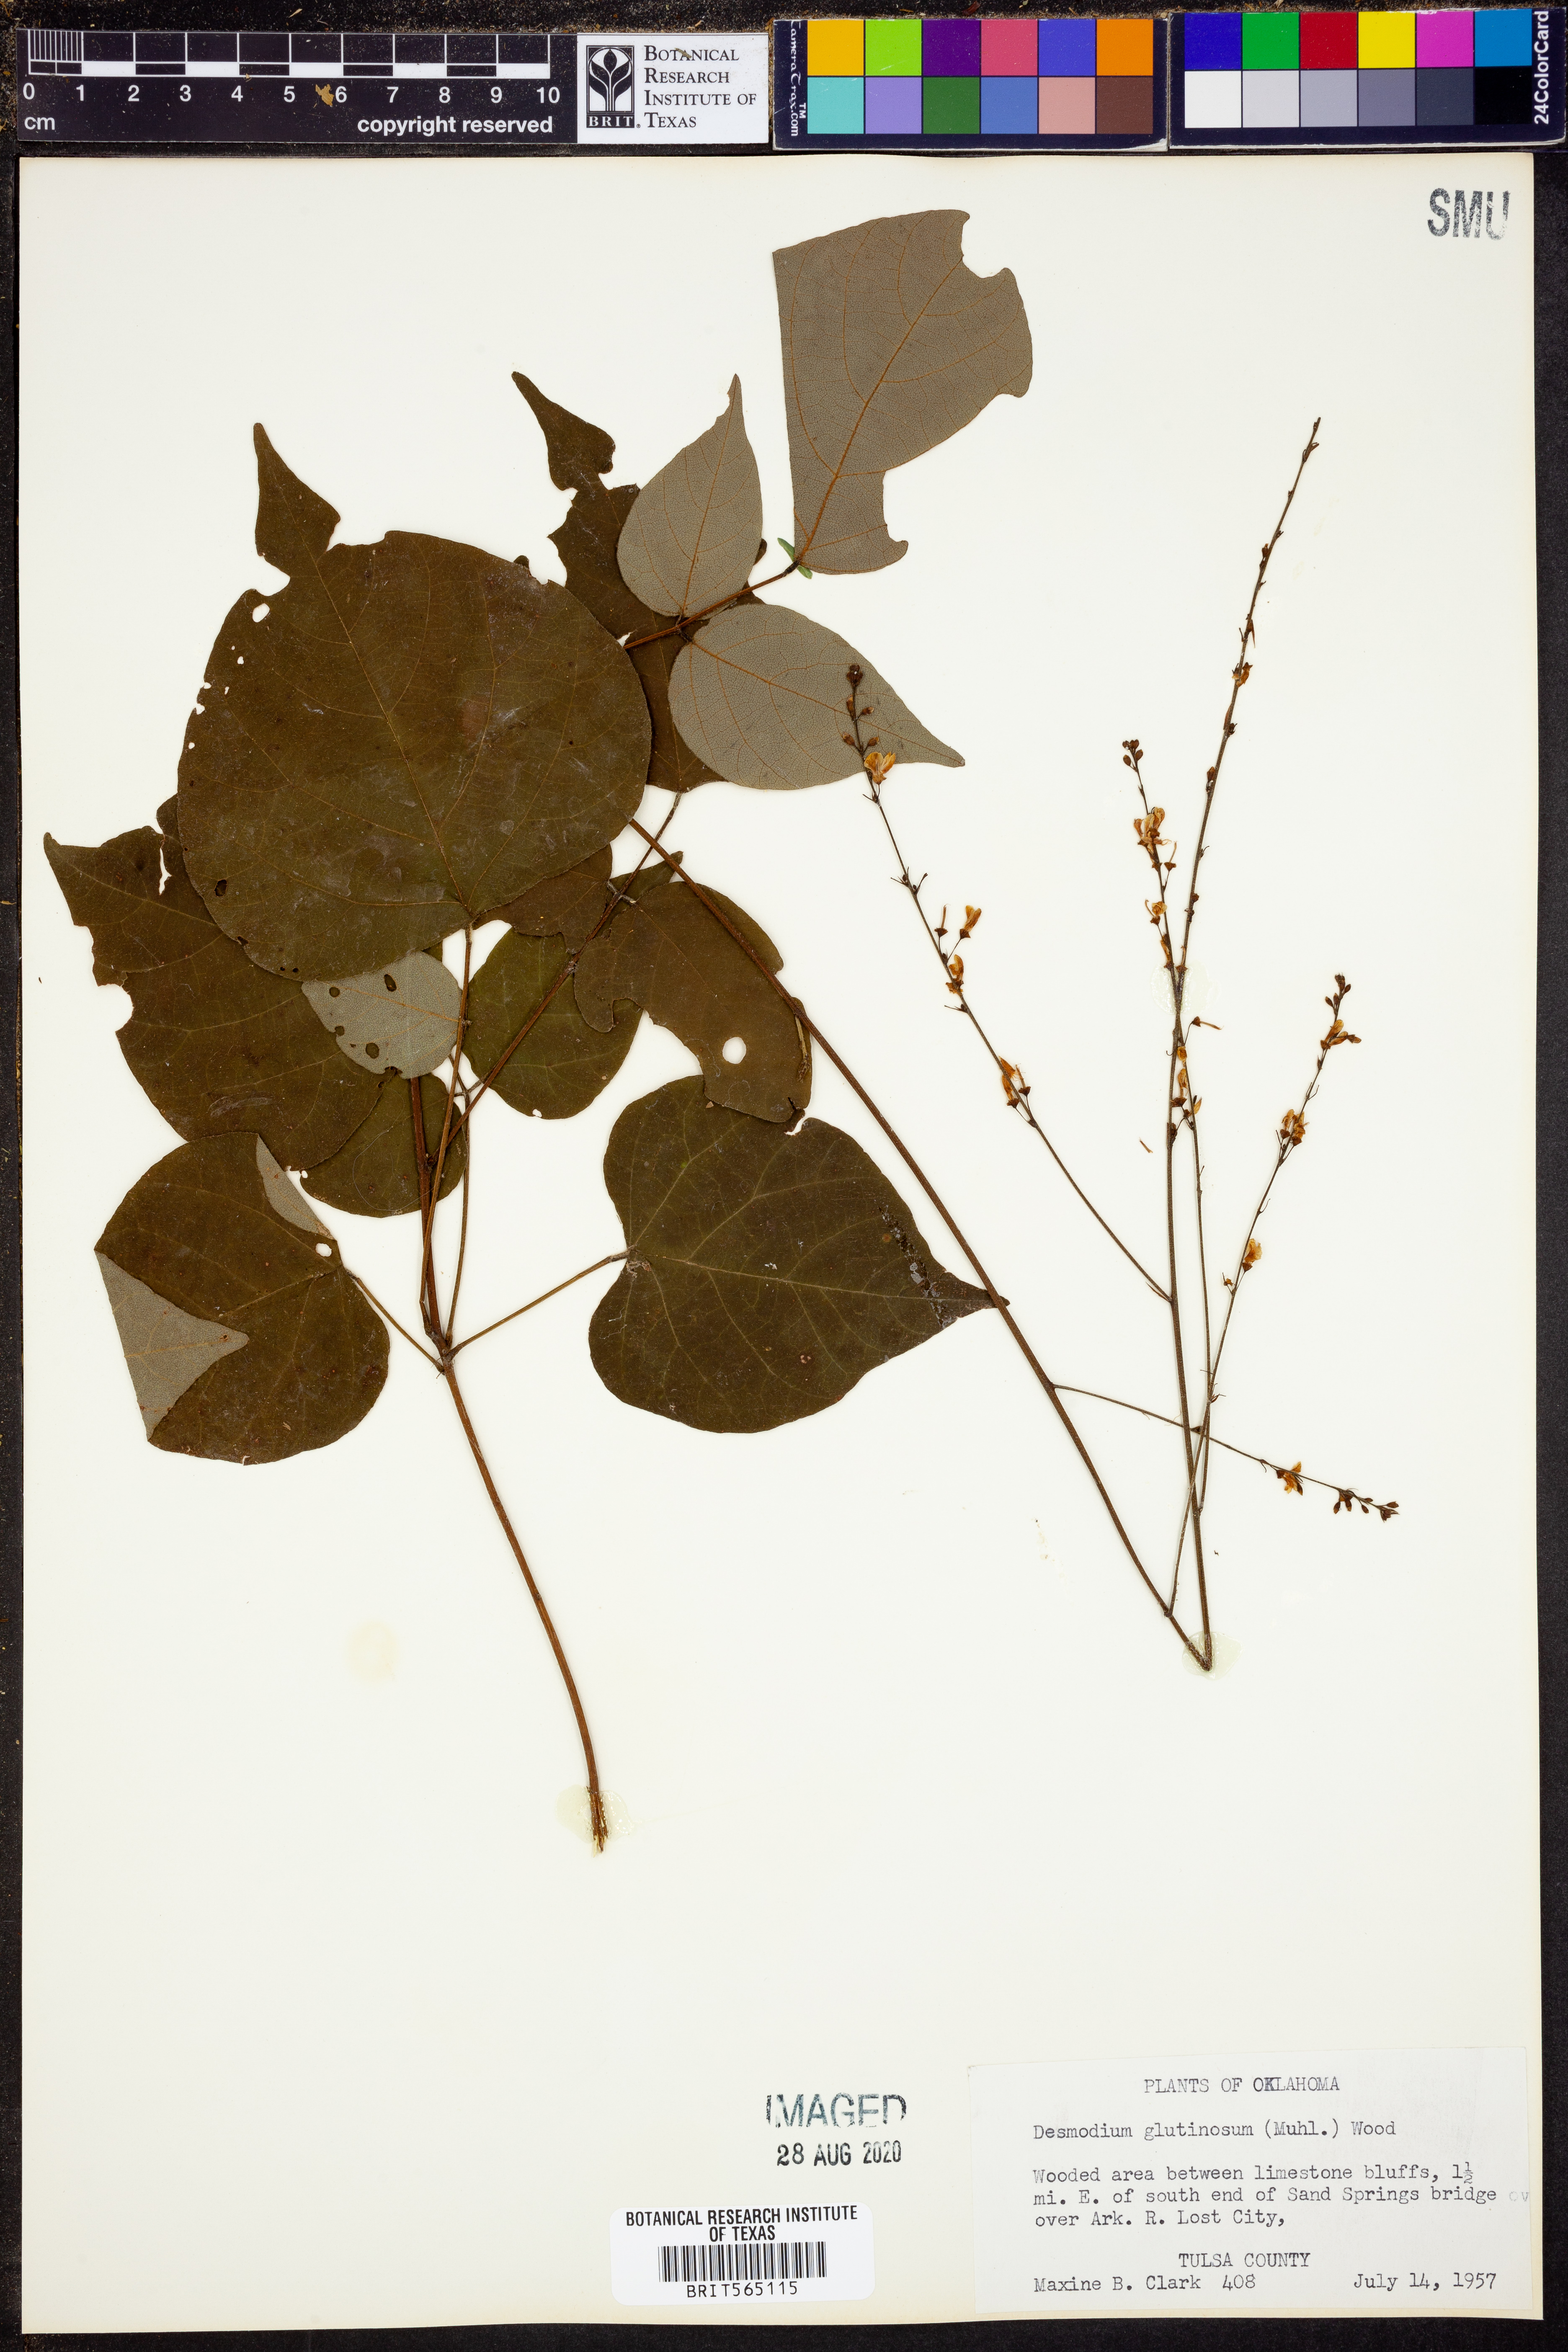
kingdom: Plantae
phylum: Tracheophyta
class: Magnoliopsida
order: Fabales
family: Fabaceae
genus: Hylodesmum
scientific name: Hylodesmum glutinosum
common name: Clustered-leaved tick-trefoil
